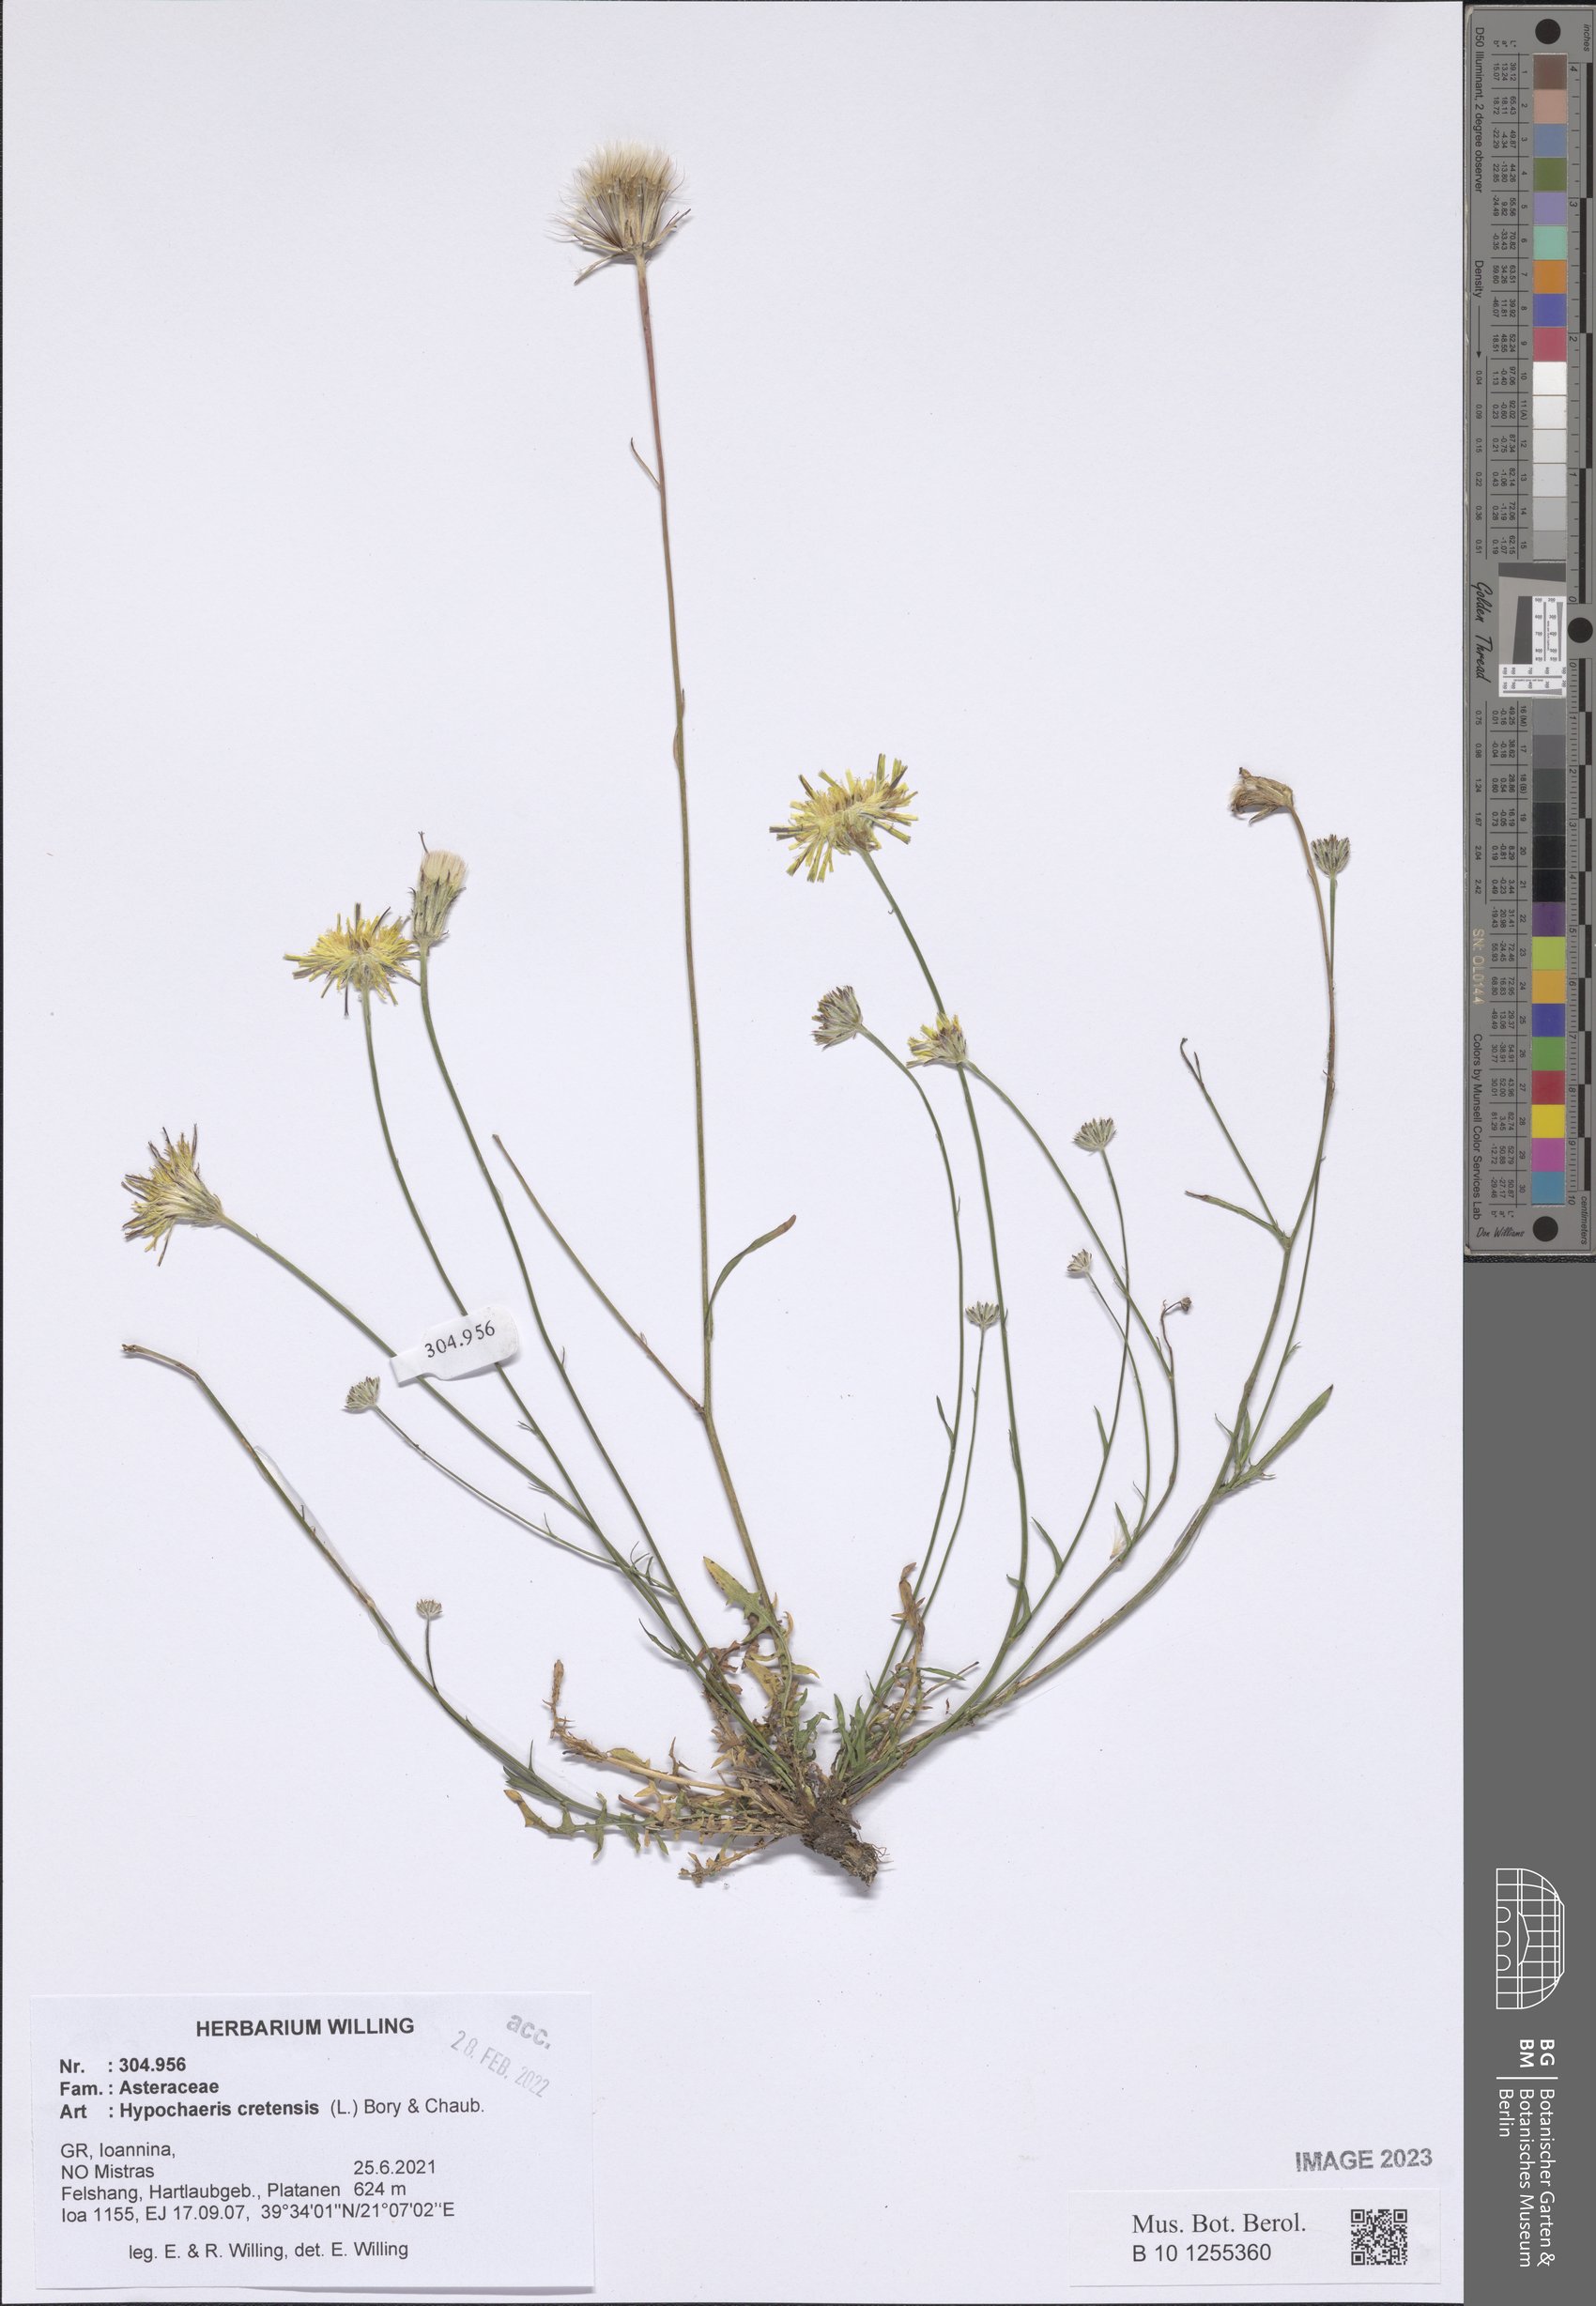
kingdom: Plantae
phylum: Tracheophyta
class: Magnoliopsida
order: Asterales
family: Asteraceae
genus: Hypochaeris
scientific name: Hypochaeris cretensis
